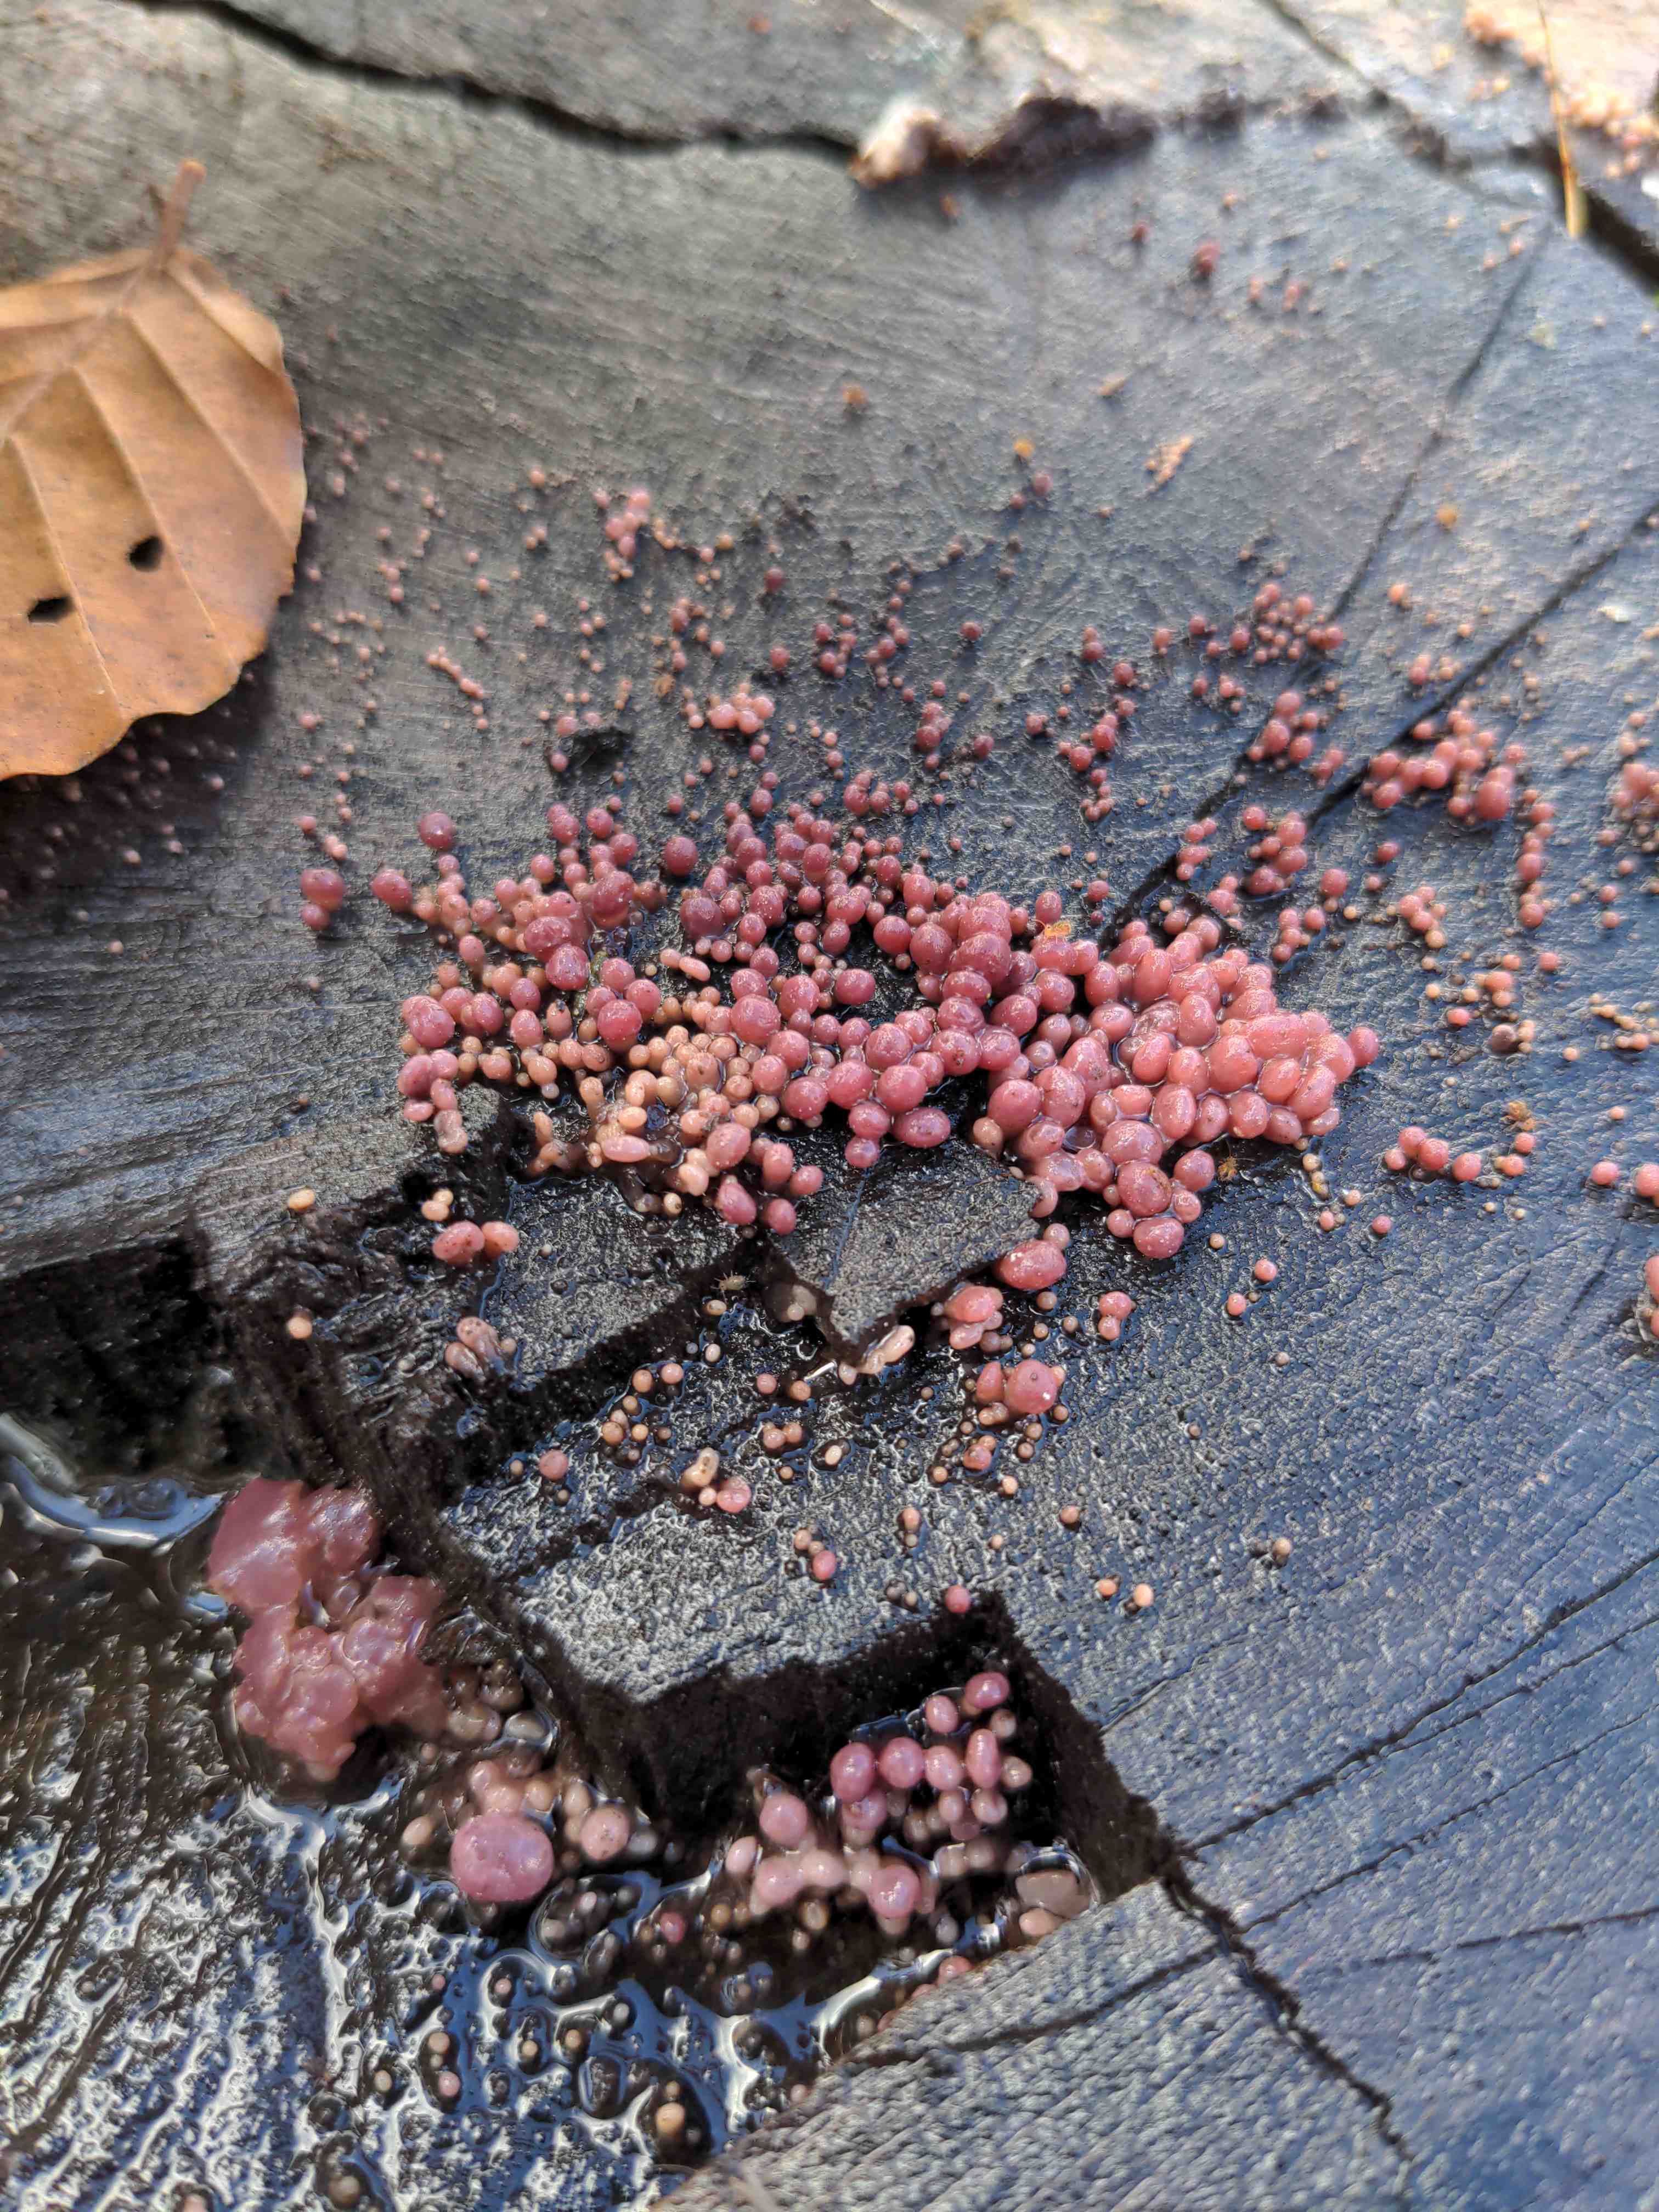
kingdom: Fungi
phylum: Ascomycota
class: Leotiomycetes
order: Helotiales
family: Gelatinodiscaceae
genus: Ascocoryne
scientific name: Ascocoryne sarcoides
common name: rødlilla sejskive
